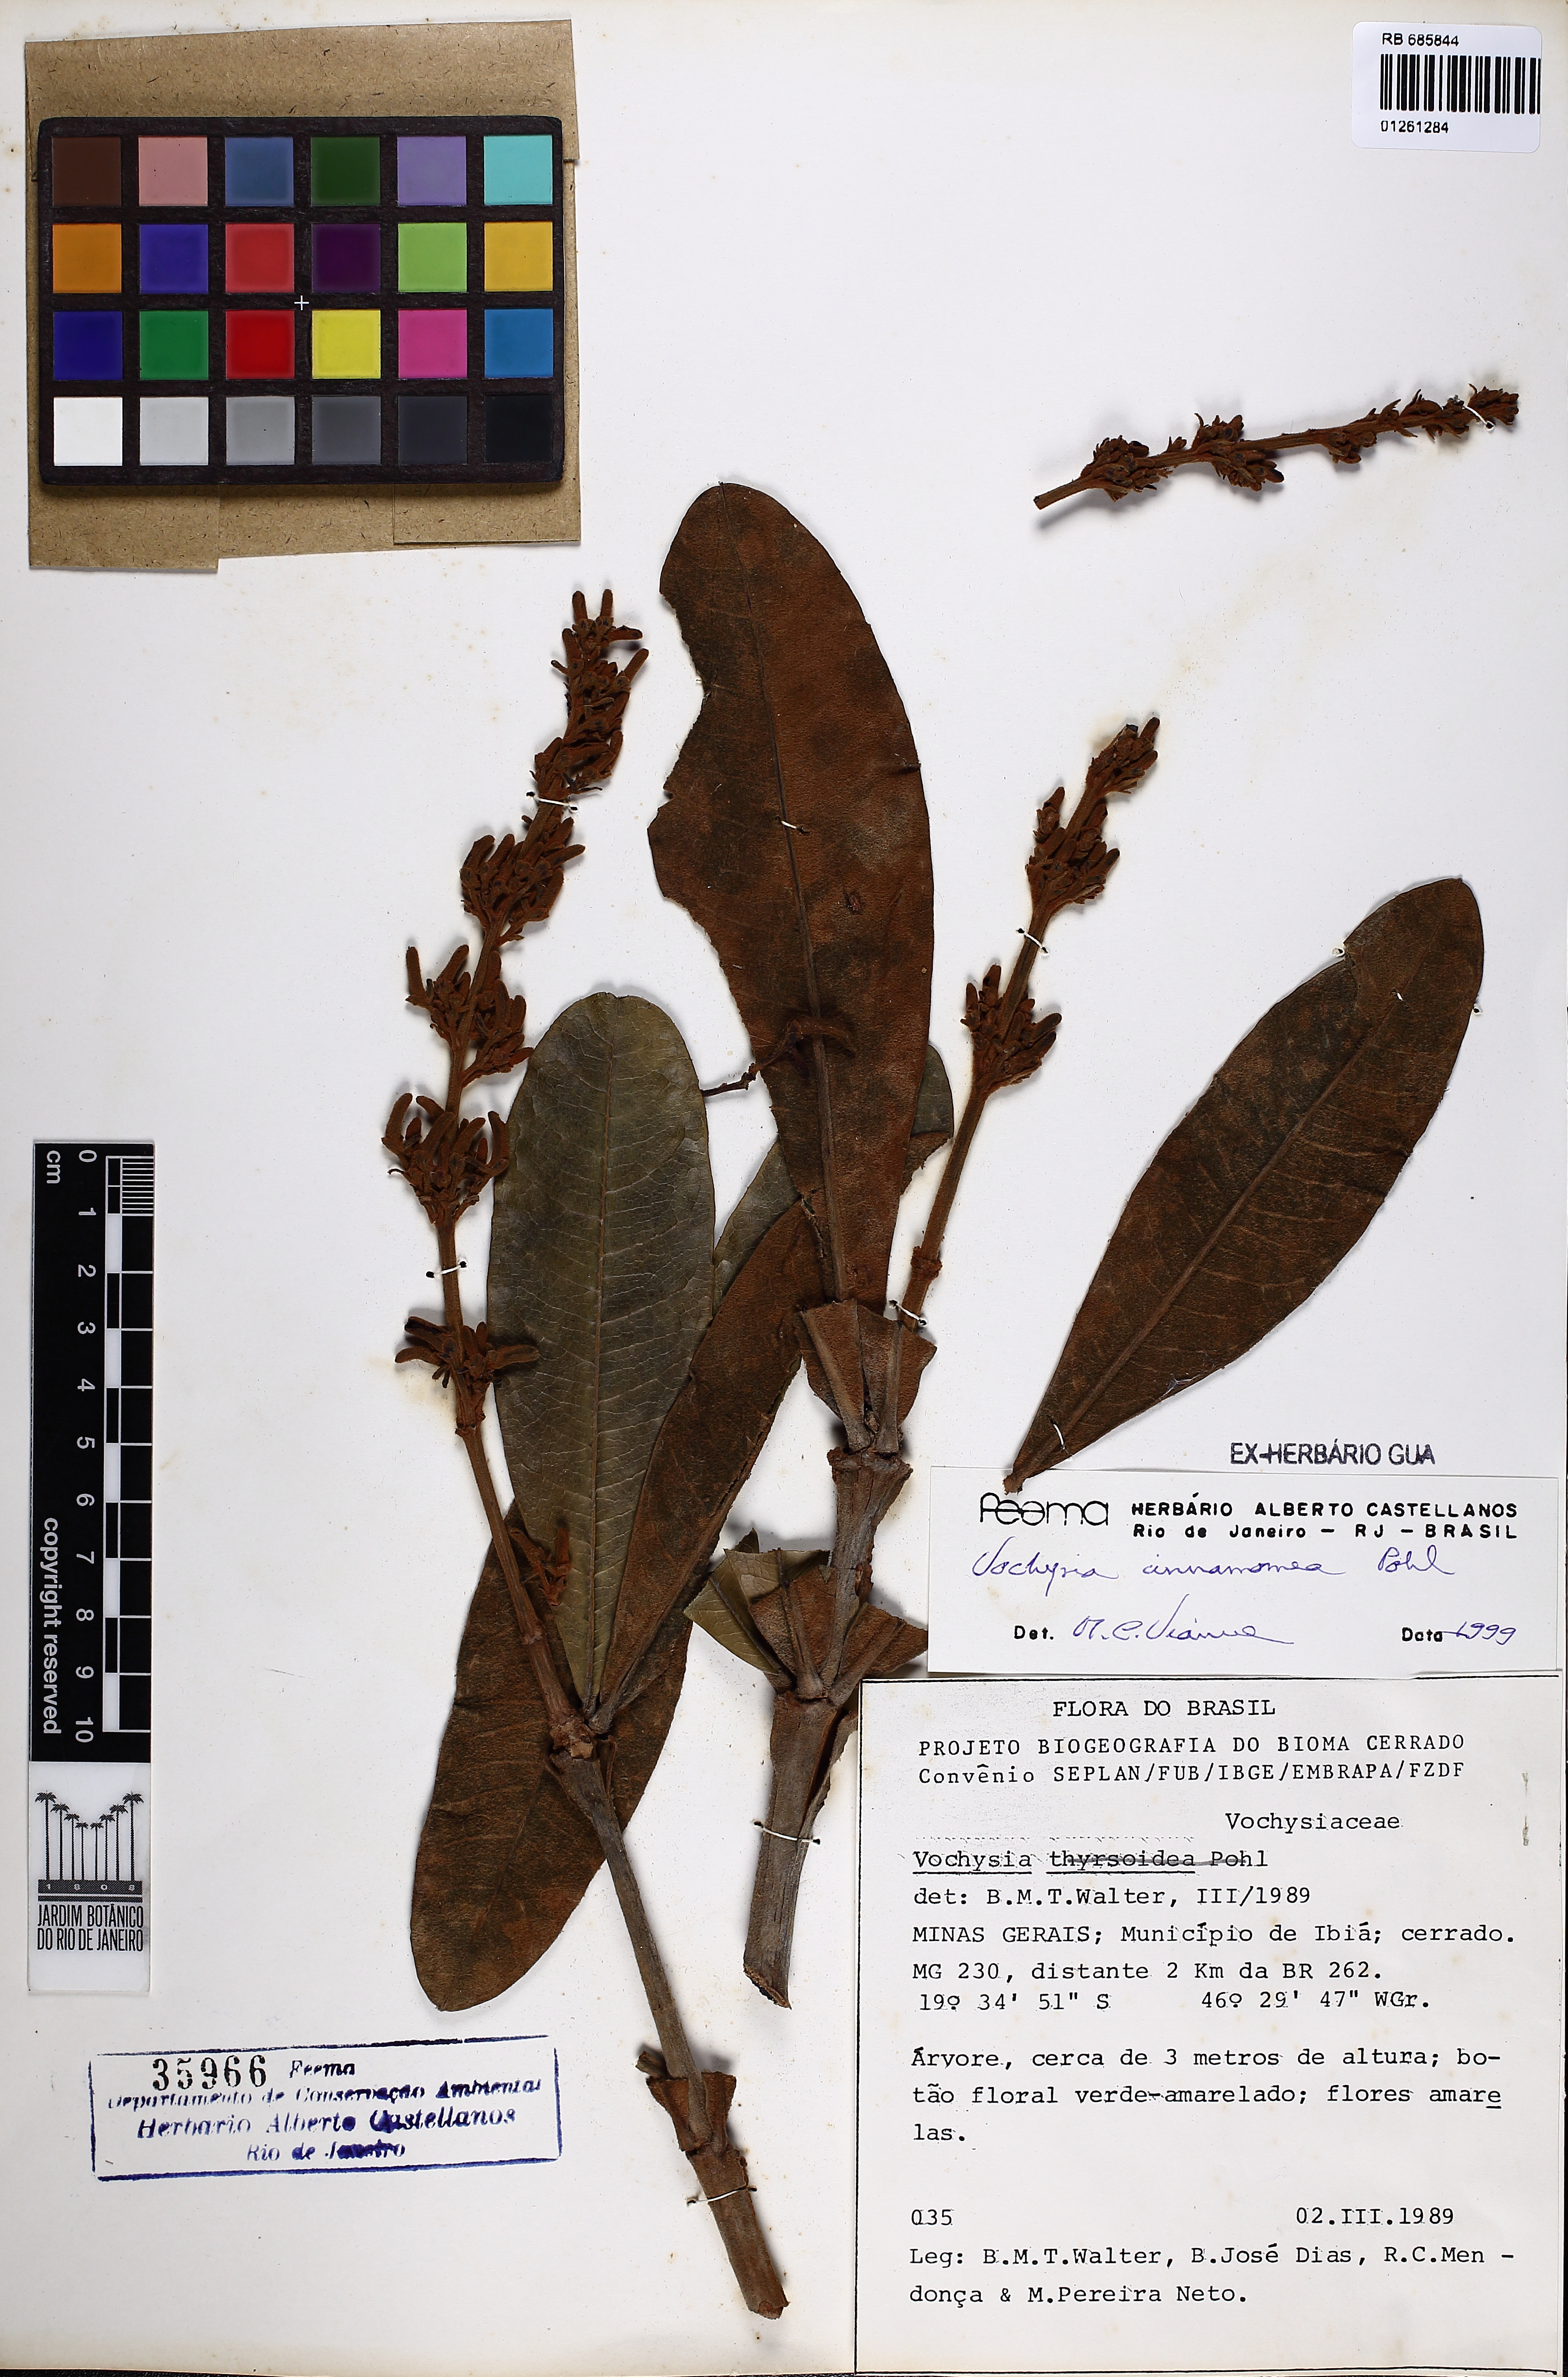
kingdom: Plantae
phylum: Tracheophyta
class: Magnoliopsida
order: Myrtales
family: Vochysiaceae
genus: Vochysia
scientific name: Vochysia cinnamomea
